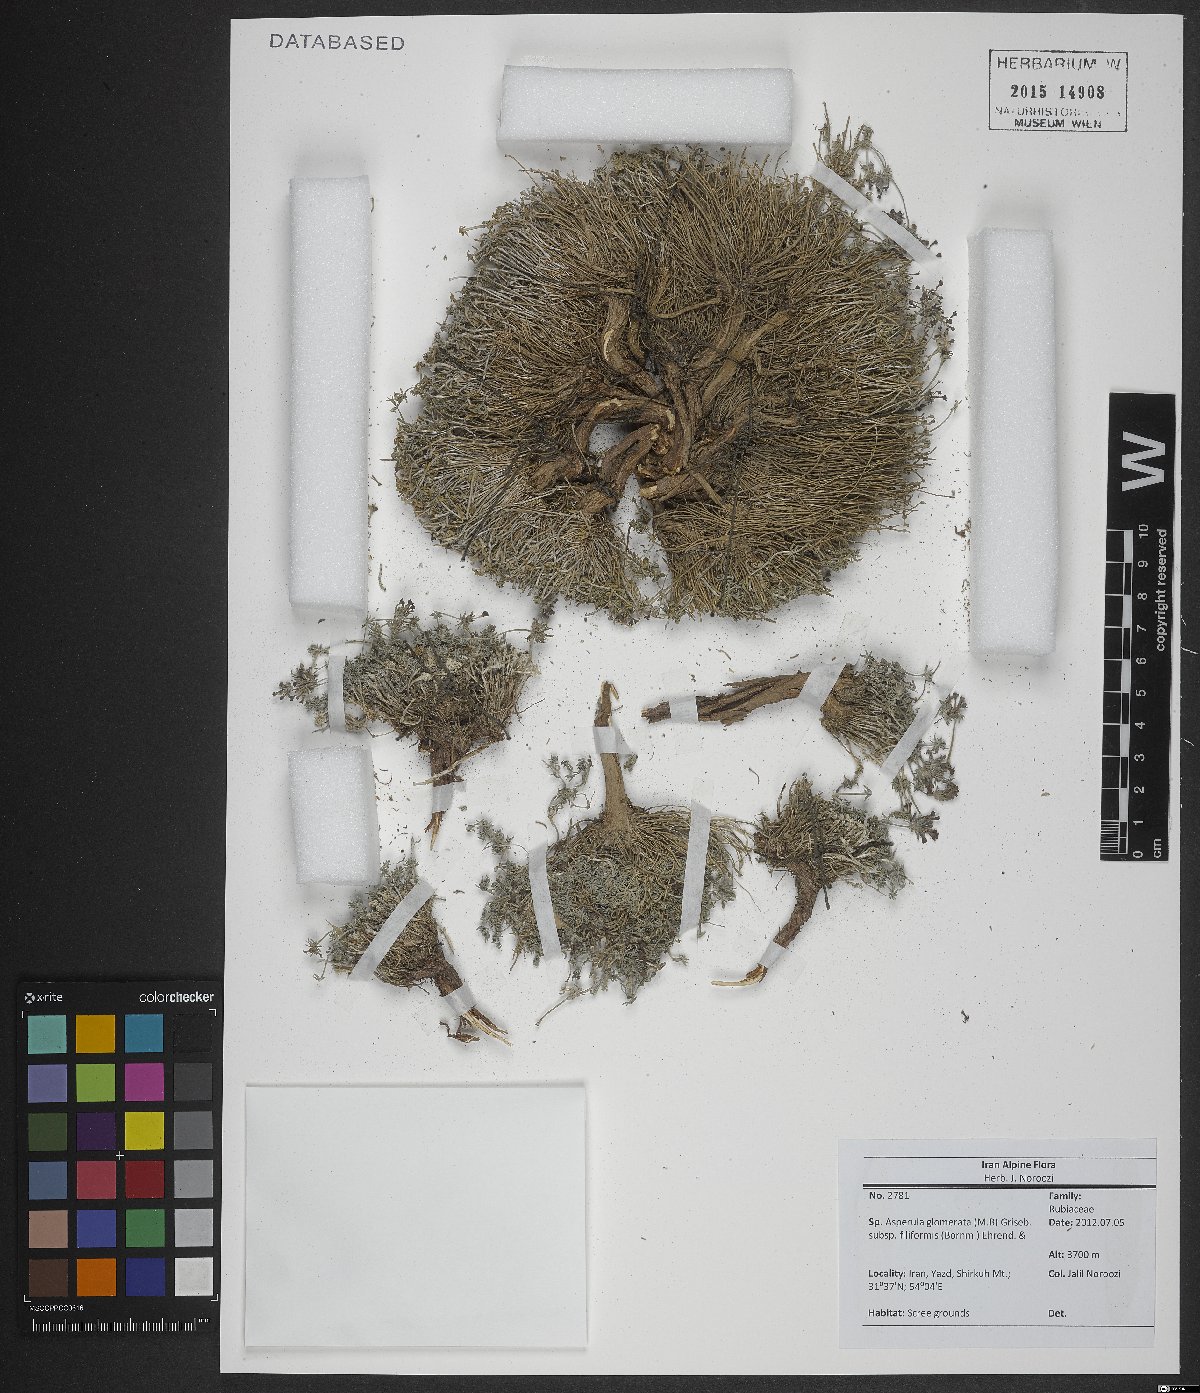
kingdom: Plantae
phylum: Tracheophyta
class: Magnoliopsida
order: Gentianales
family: Rubiaceae
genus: Asperula
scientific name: Asperula glomerata
